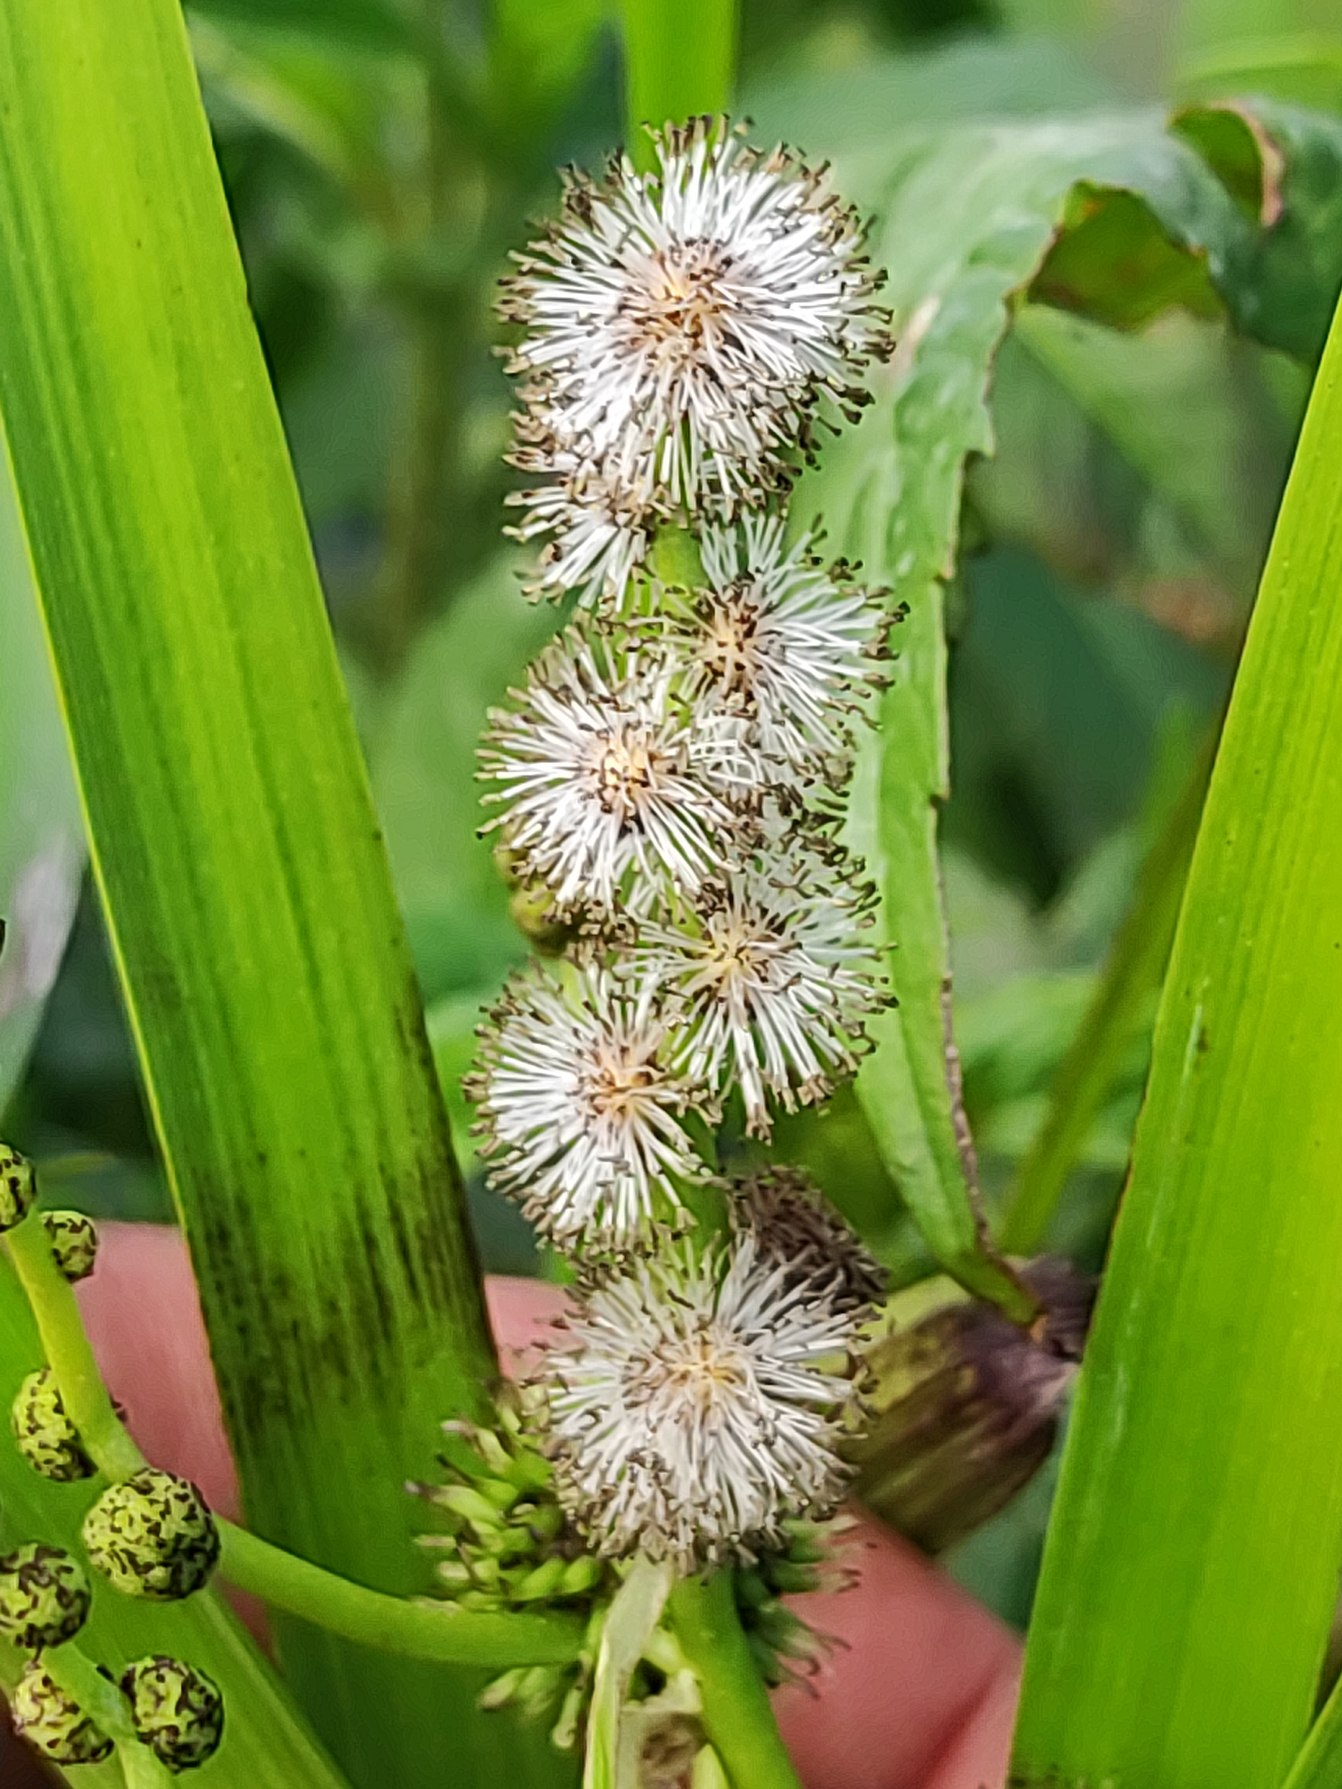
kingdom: Plantae
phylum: Tracheophyta
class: Liliopsida
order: Poales
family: Typhaceae
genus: Sparganium
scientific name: Sparganium erectum
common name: Grenet pindsvineknop
